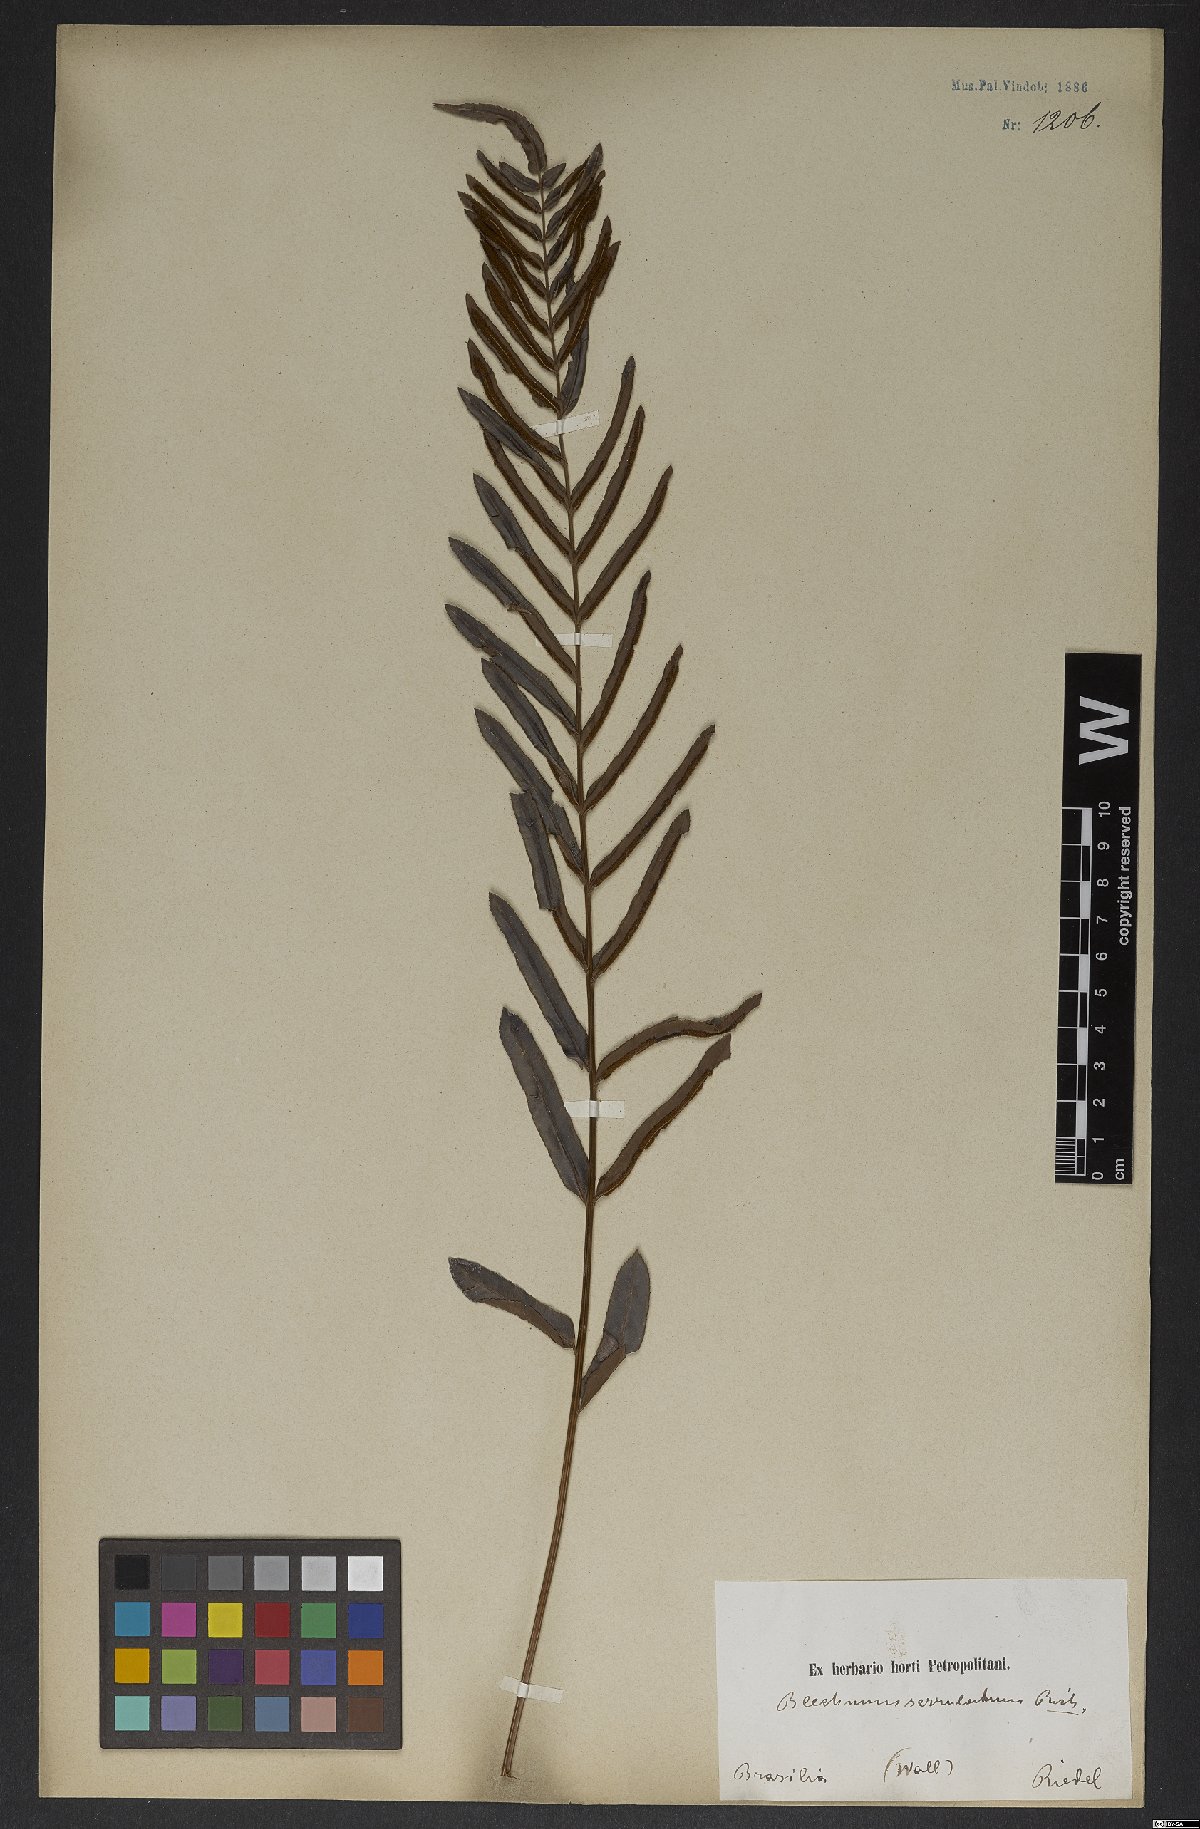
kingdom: Plantae
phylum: Tracheophyta
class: Polypodiopsida
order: Polypodiales
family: Blechnaceae
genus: Telmatoblechnum
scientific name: Telmatoblechnum serrulatum
